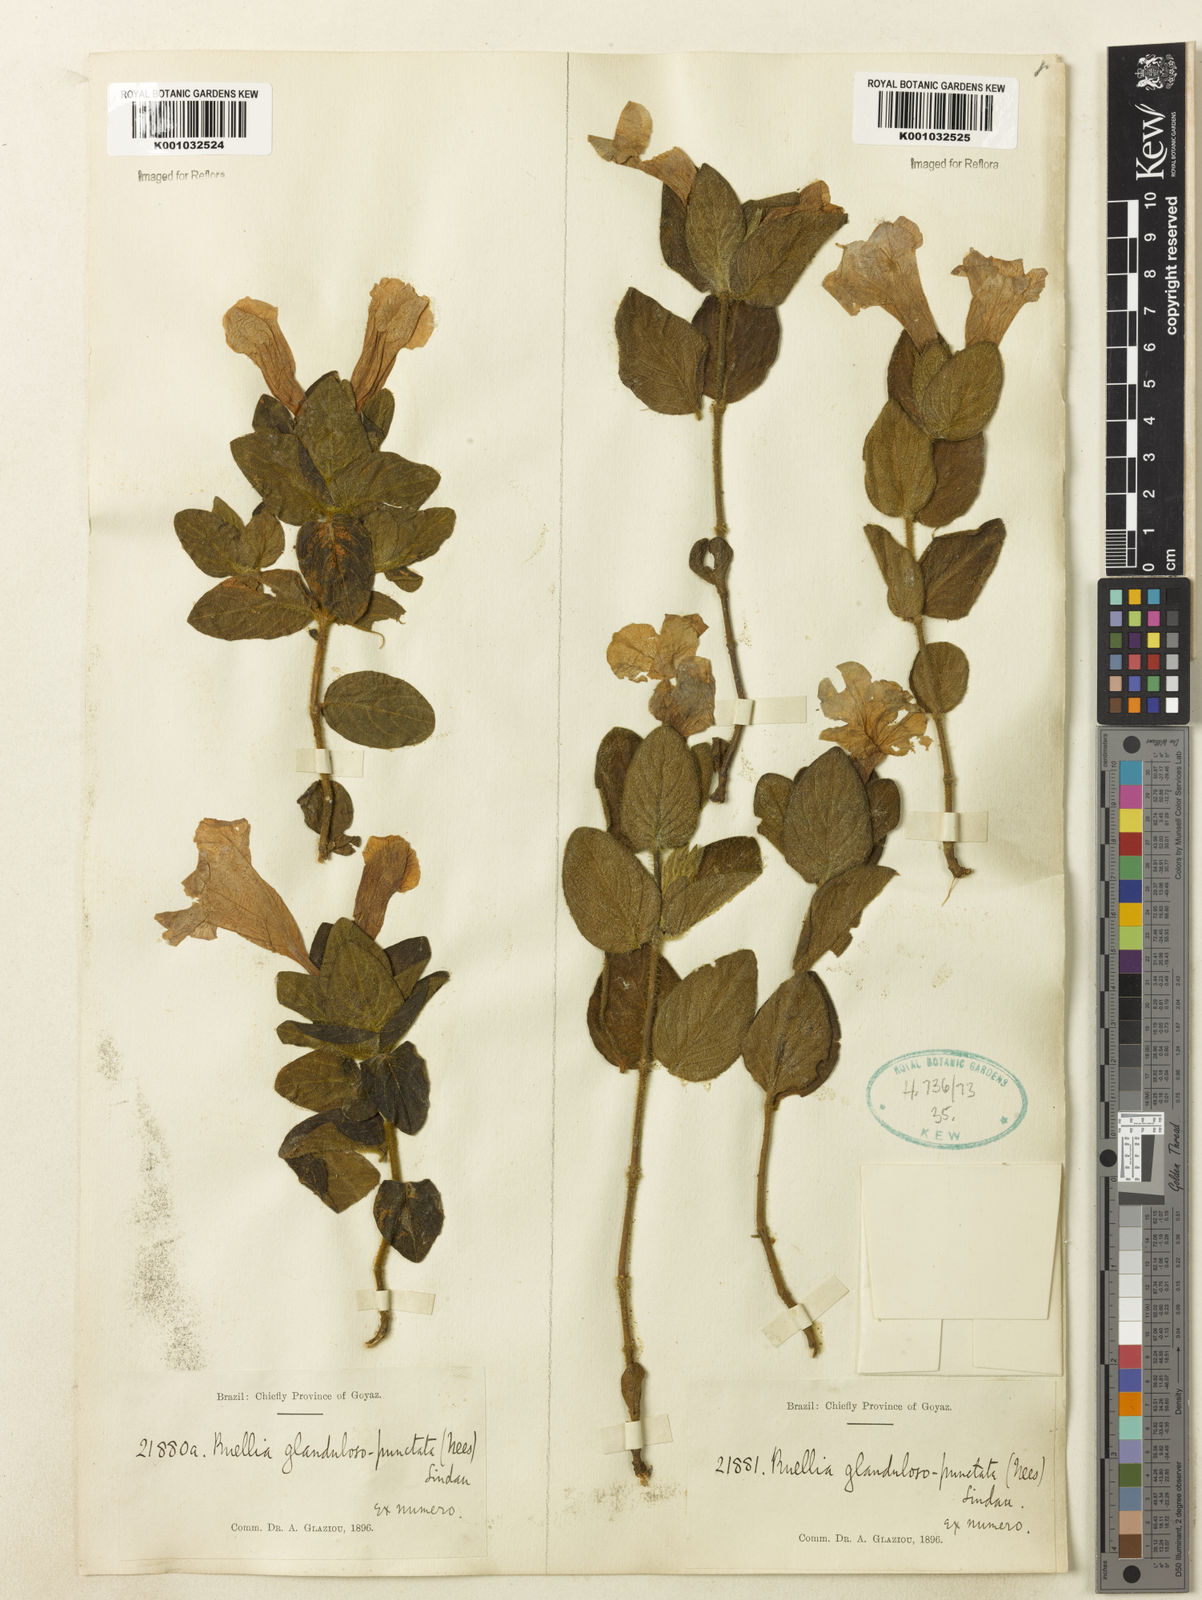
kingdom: Plantae
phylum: Tracheophyta
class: Magnoliopsida
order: Lamiales
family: Acanthaceae
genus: Ruellia
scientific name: Ruellia multifolia
